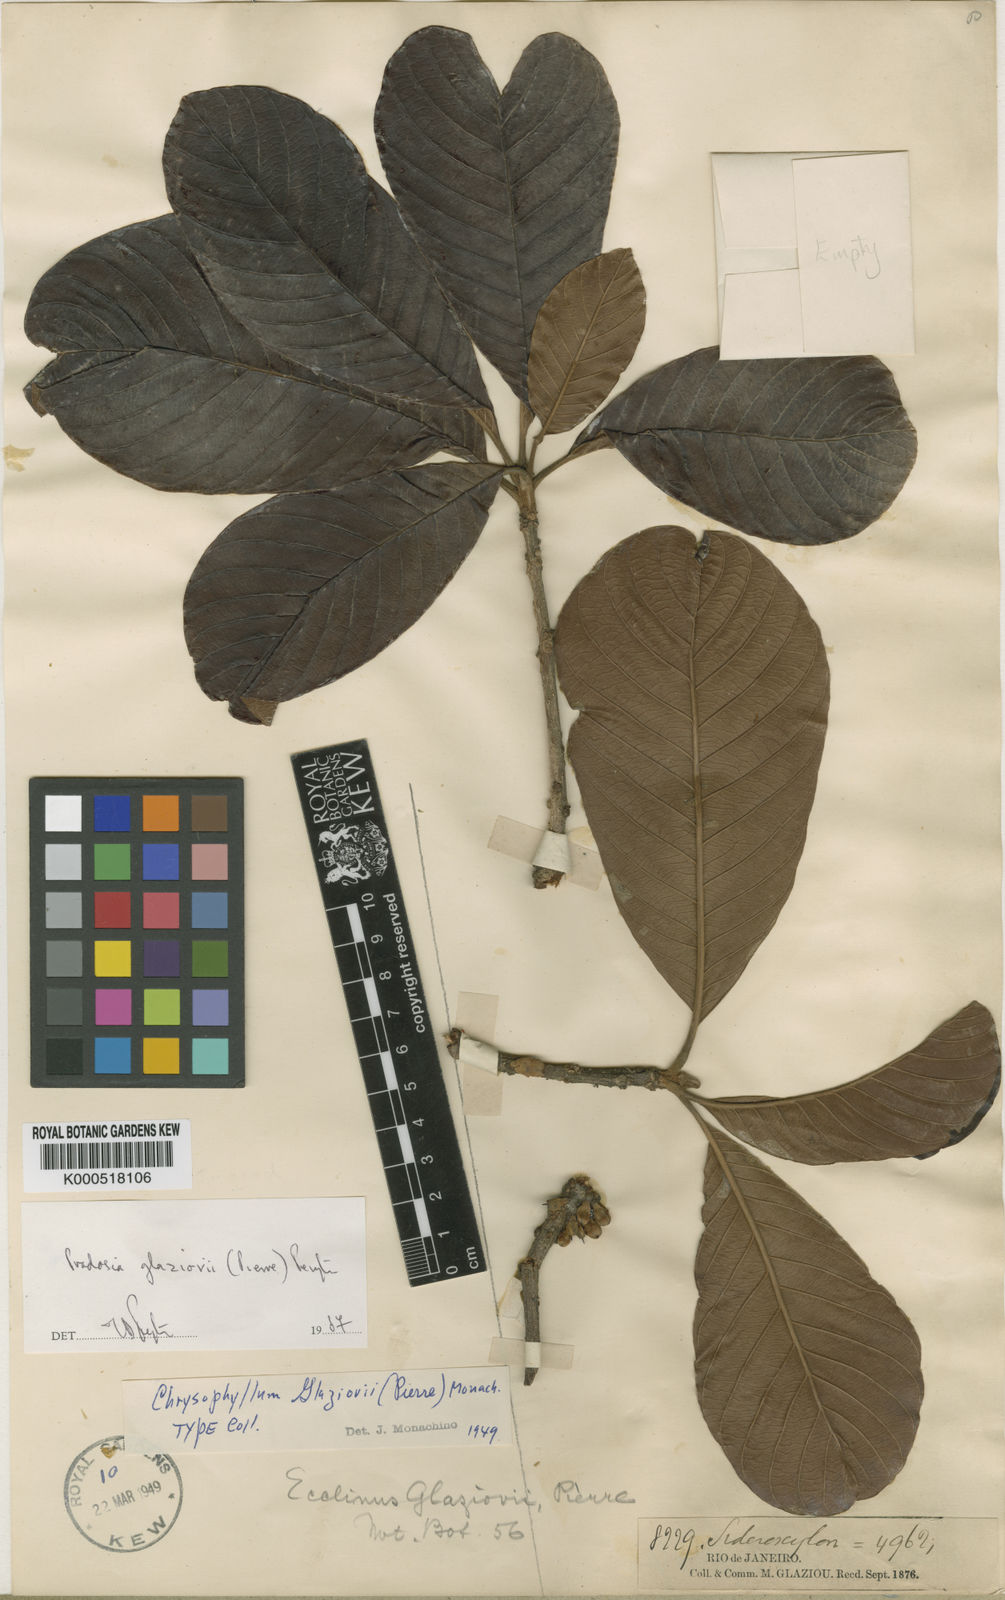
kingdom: Plantae
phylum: Tracheophyta
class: Magnoliopsida
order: Ericales
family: Sapotaceae
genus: Pradosia
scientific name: Pradosia glaziovii
